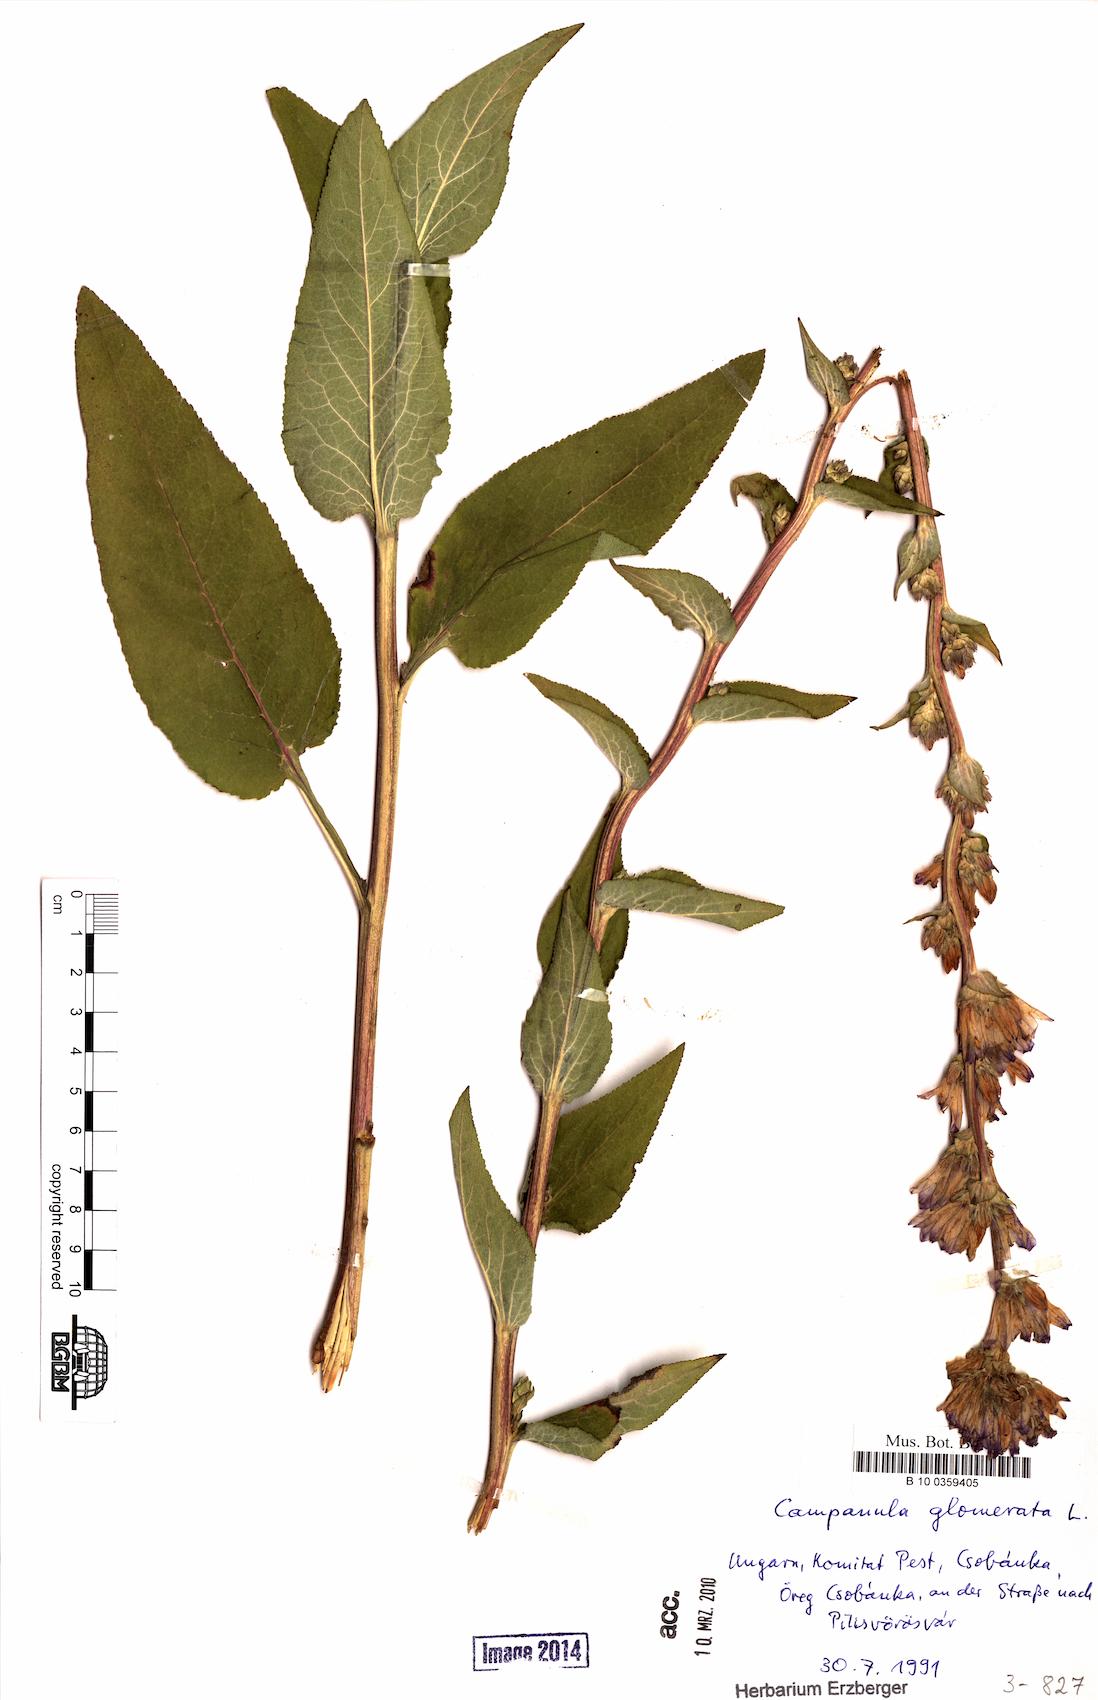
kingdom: Plantae
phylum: Tracheophyta
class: Magnoliopsida
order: Asterales
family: Campanulaceae
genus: Campanula
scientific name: Campanula glomerata
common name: Clustered bellflower
